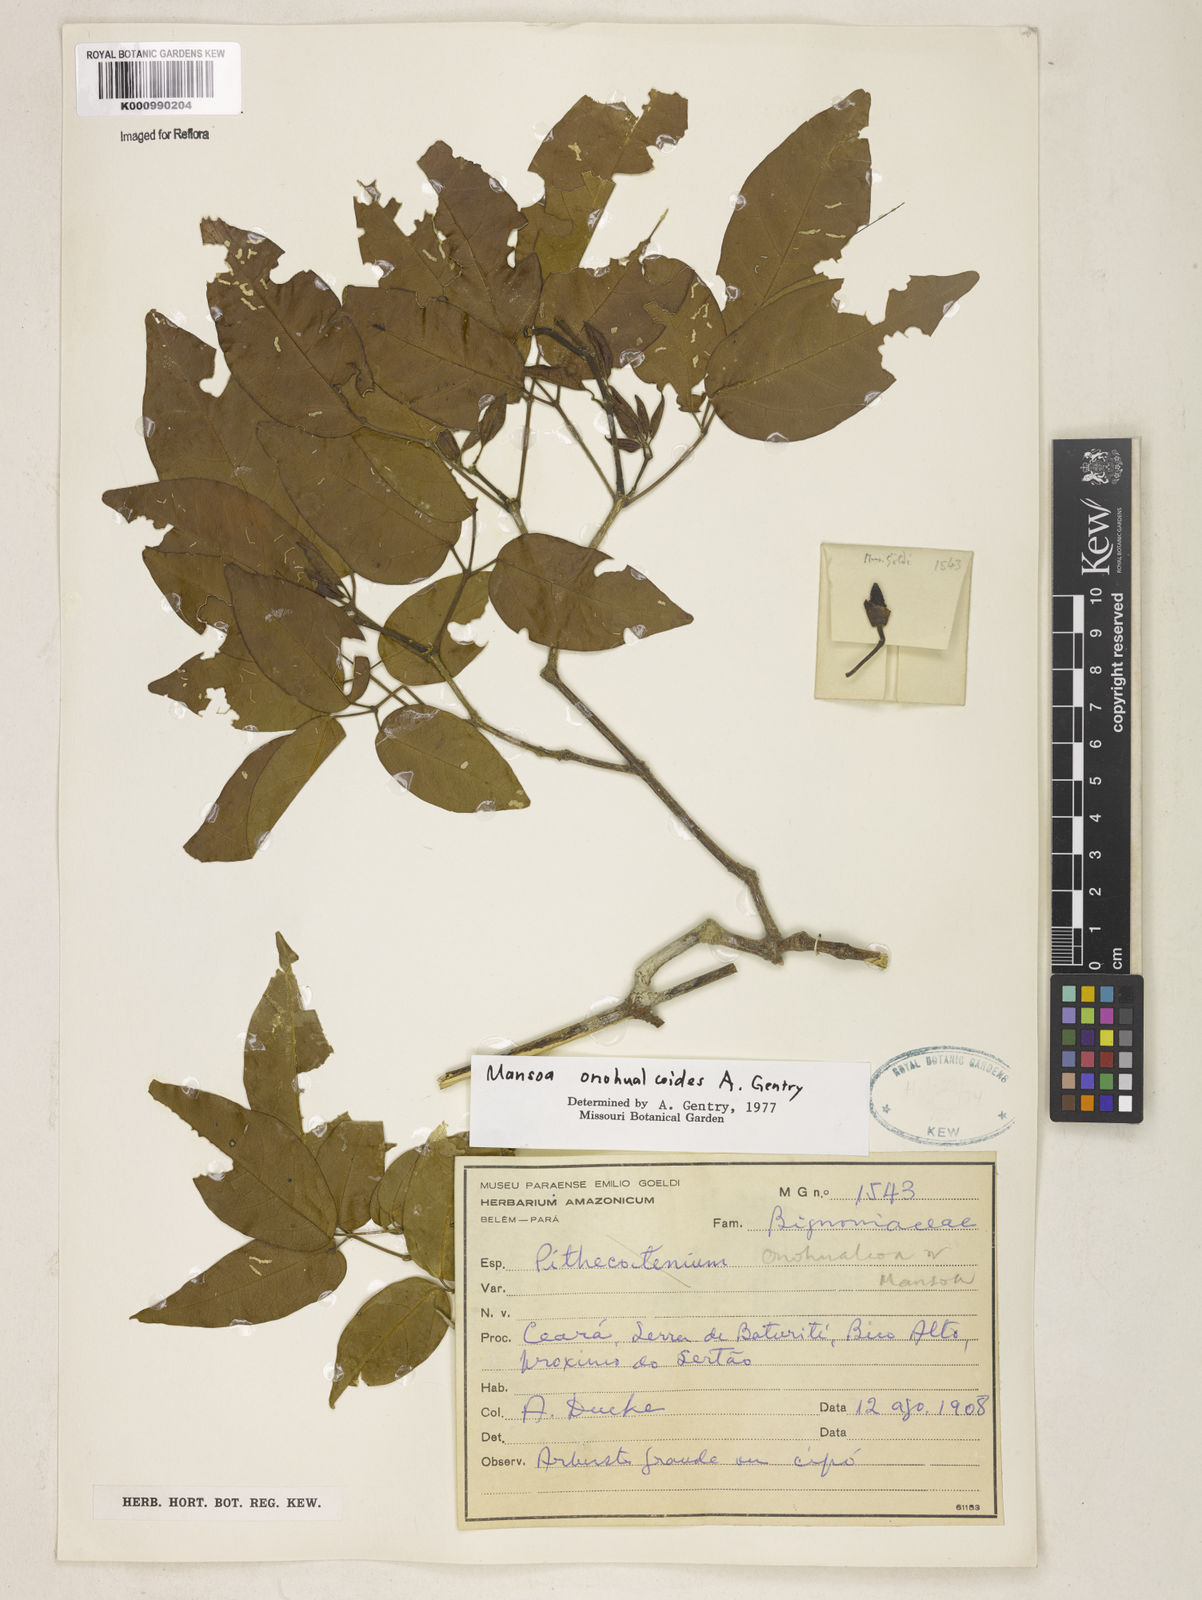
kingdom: Plantae
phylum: Tracheophyta
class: Magnoliopsida
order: Lamiales
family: Bignoniaceae
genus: Mansoa
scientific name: Mansoa onohualcoides
